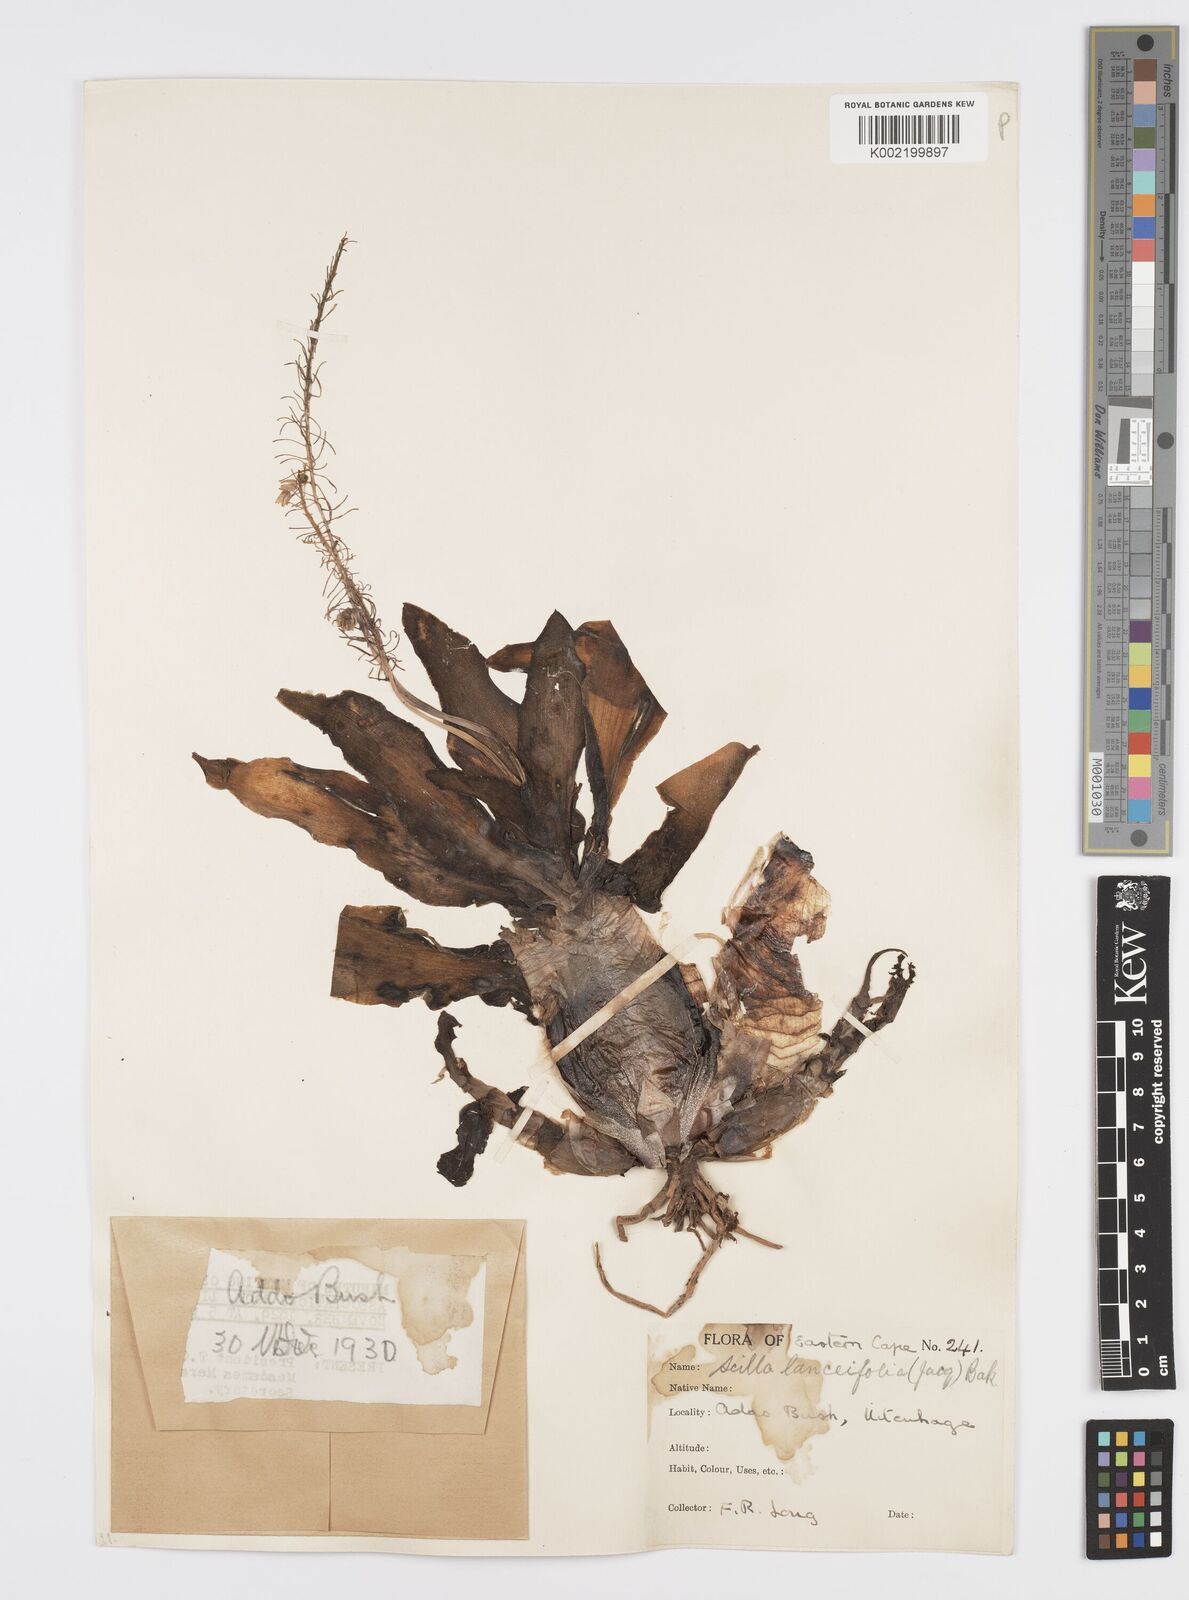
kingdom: Plantae
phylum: Tracheophyta
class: Liliopsida
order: Asparagales
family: Asparagaceae
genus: Ledebouria
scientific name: Ledebouria revoluta
